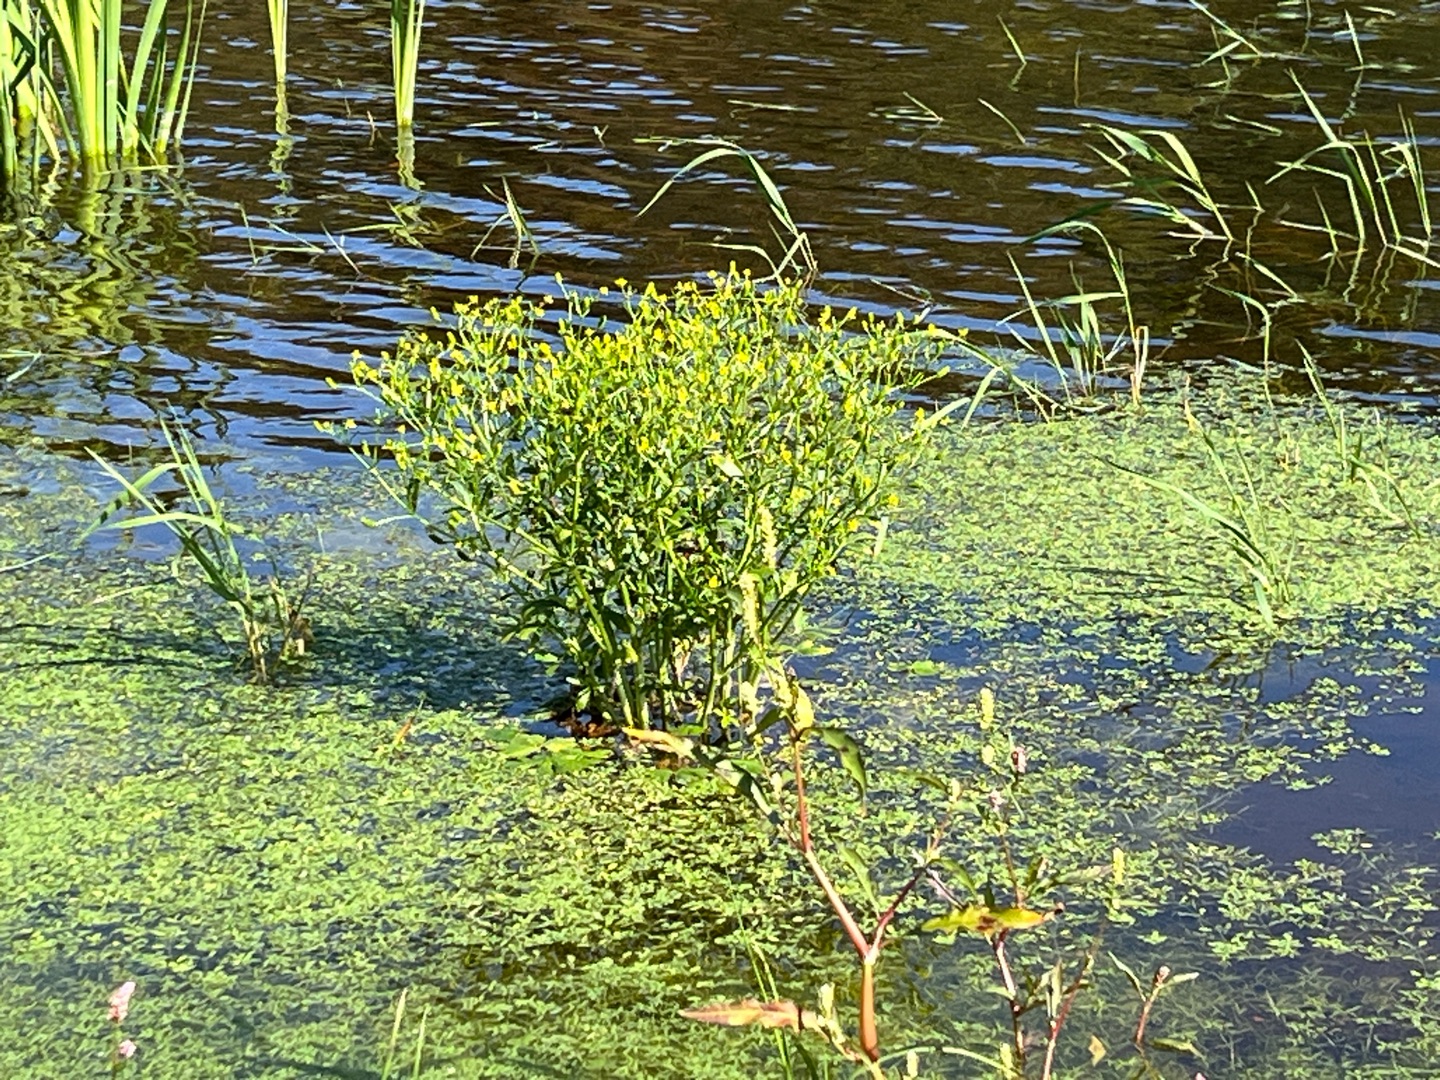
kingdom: Plantae
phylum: Tracheophyta
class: Magnoliopsida
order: Ranunculales
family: Ranunculaceae
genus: Ranunculus
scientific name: Ranunculus sceleratus
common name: Tigger-ranunkel
